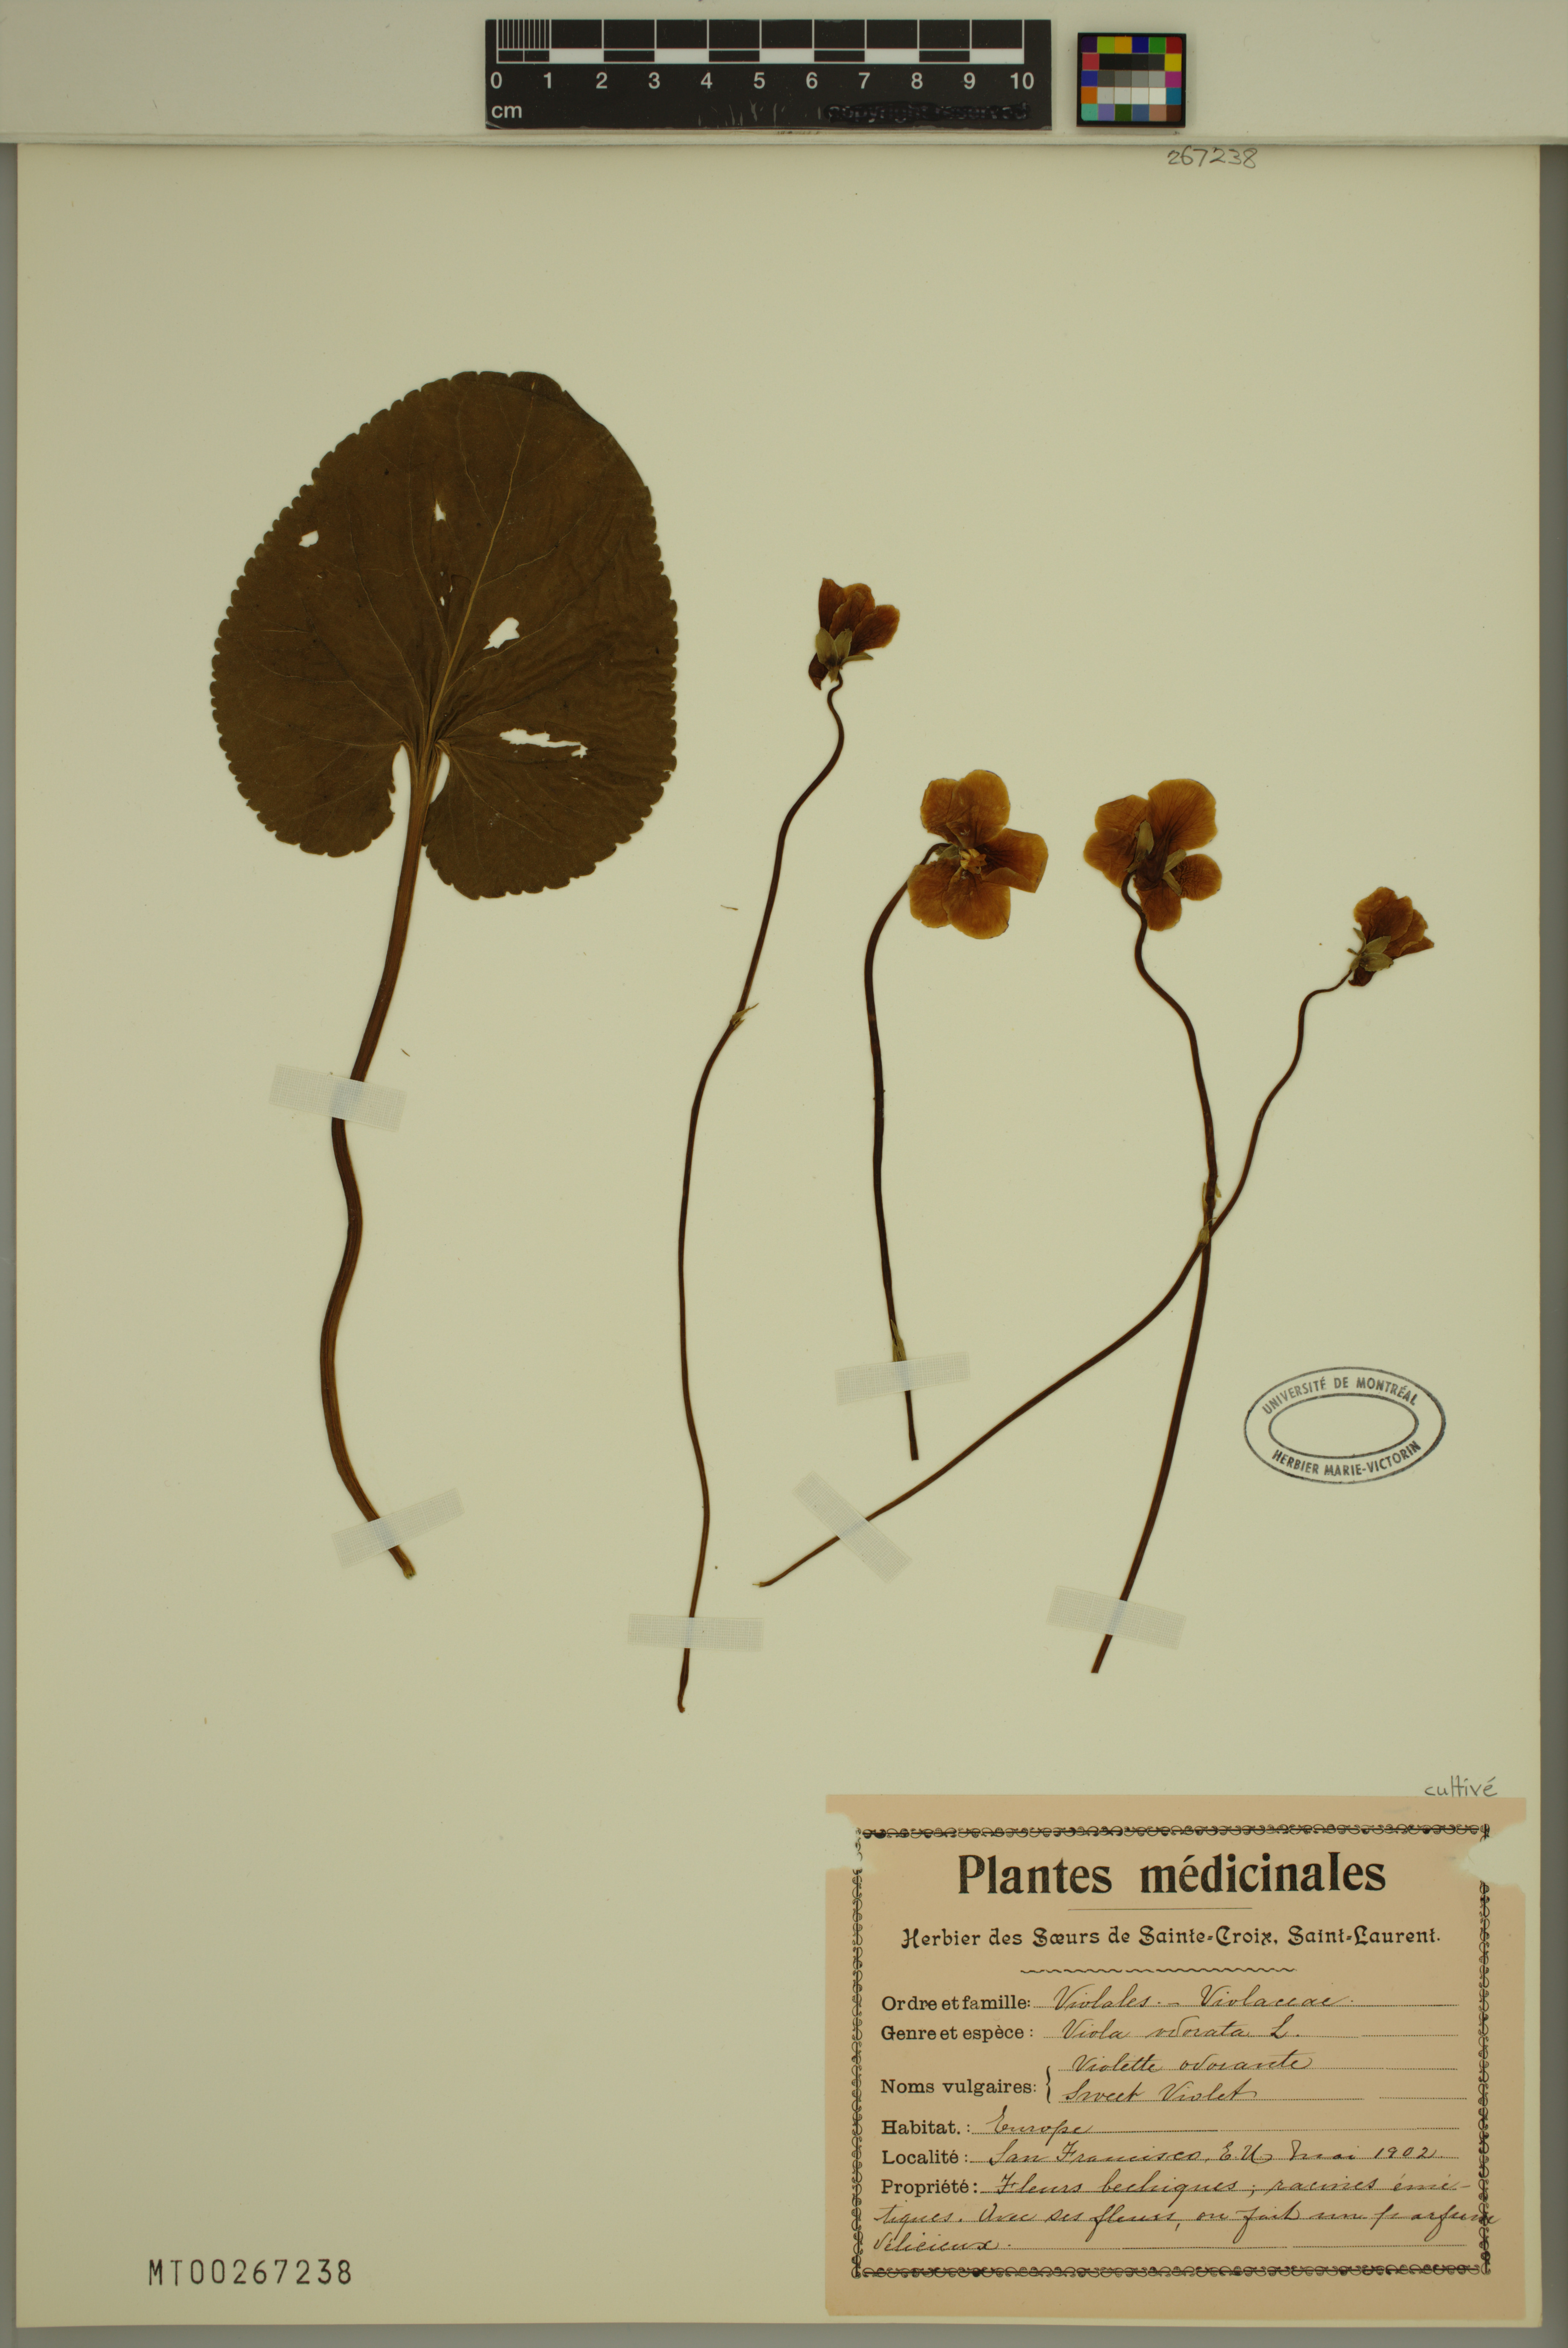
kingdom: Plantae
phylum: Tracheophyta
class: Magnoliopsida
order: Malpighiales
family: Violaceae
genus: Viola
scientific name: Viola odorata
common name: Sweet violet
